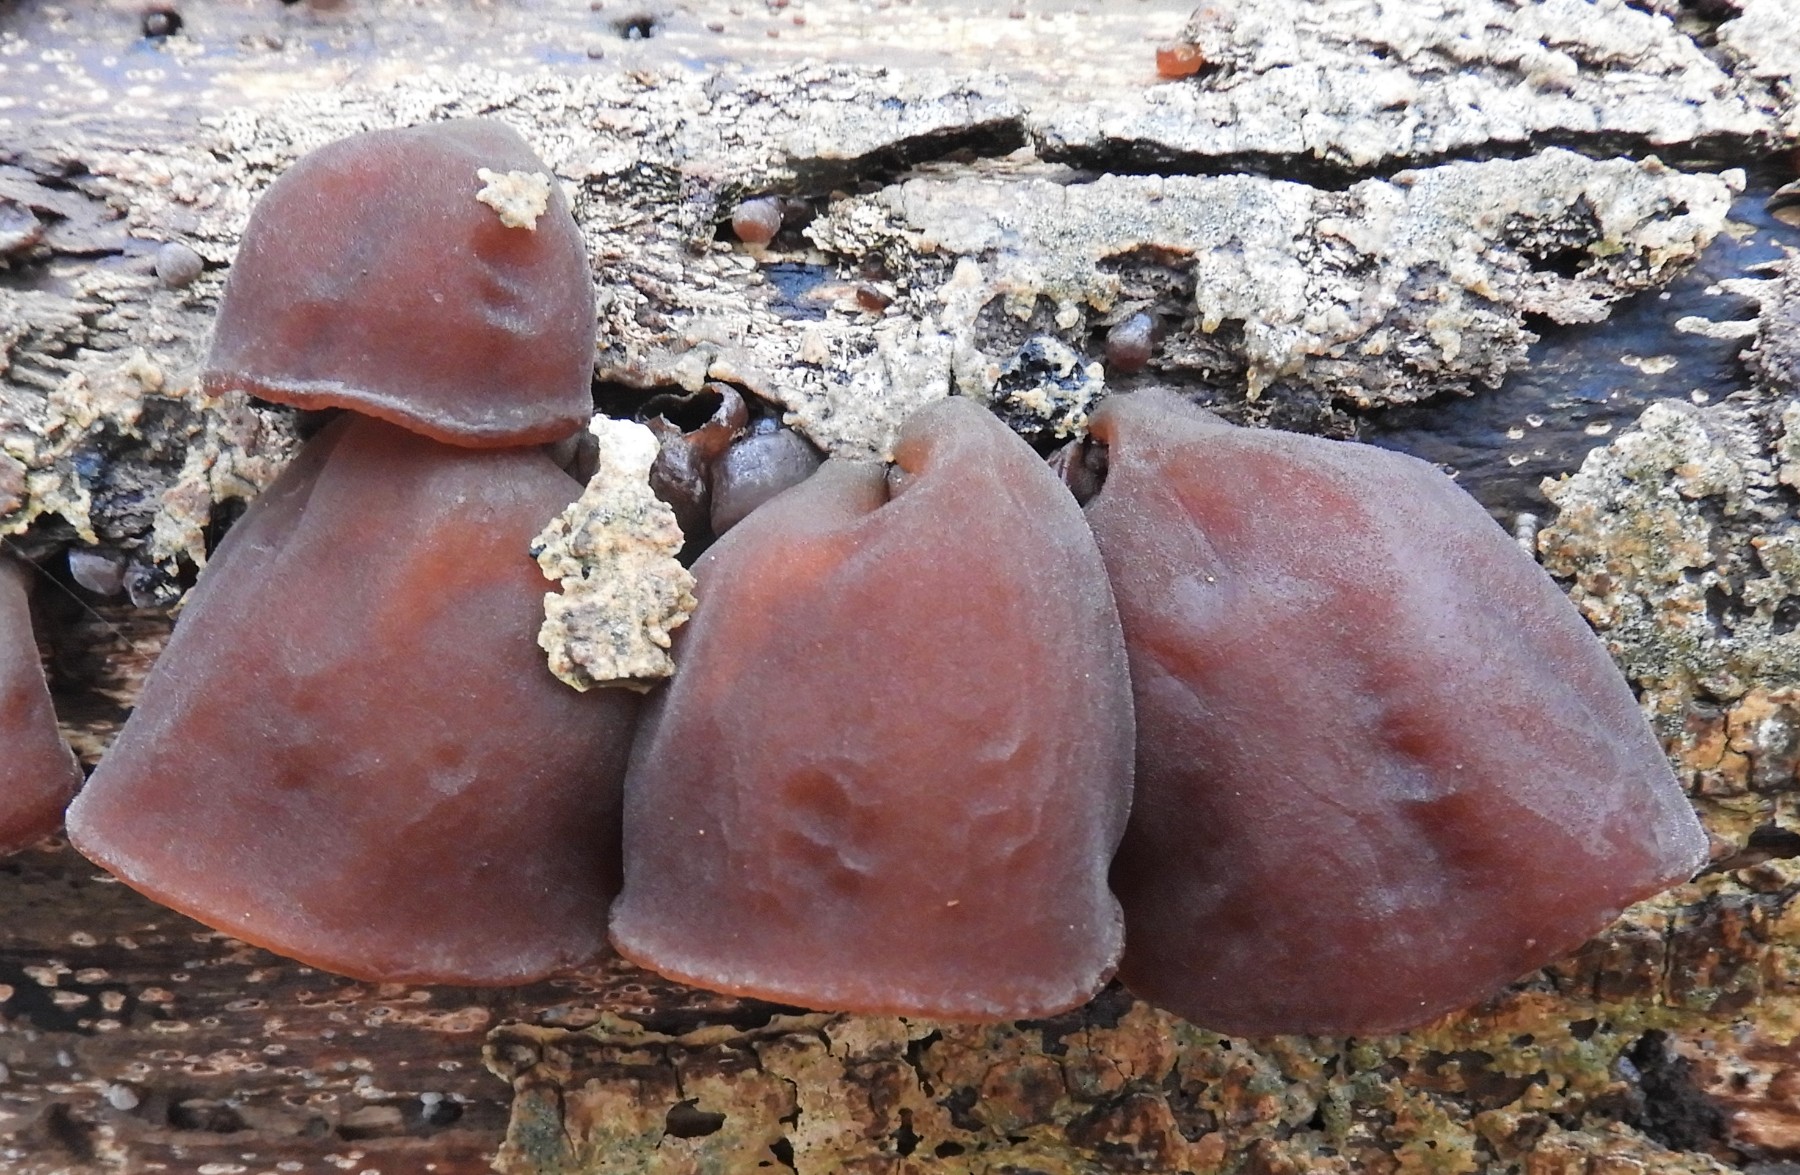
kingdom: Fungi
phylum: Basidiomycota
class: Agaricomycetes
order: Auriculariales
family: Auriculariaceae
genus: Auricularia
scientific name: Auricularia auricula-judae
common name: almindelig judasøre
